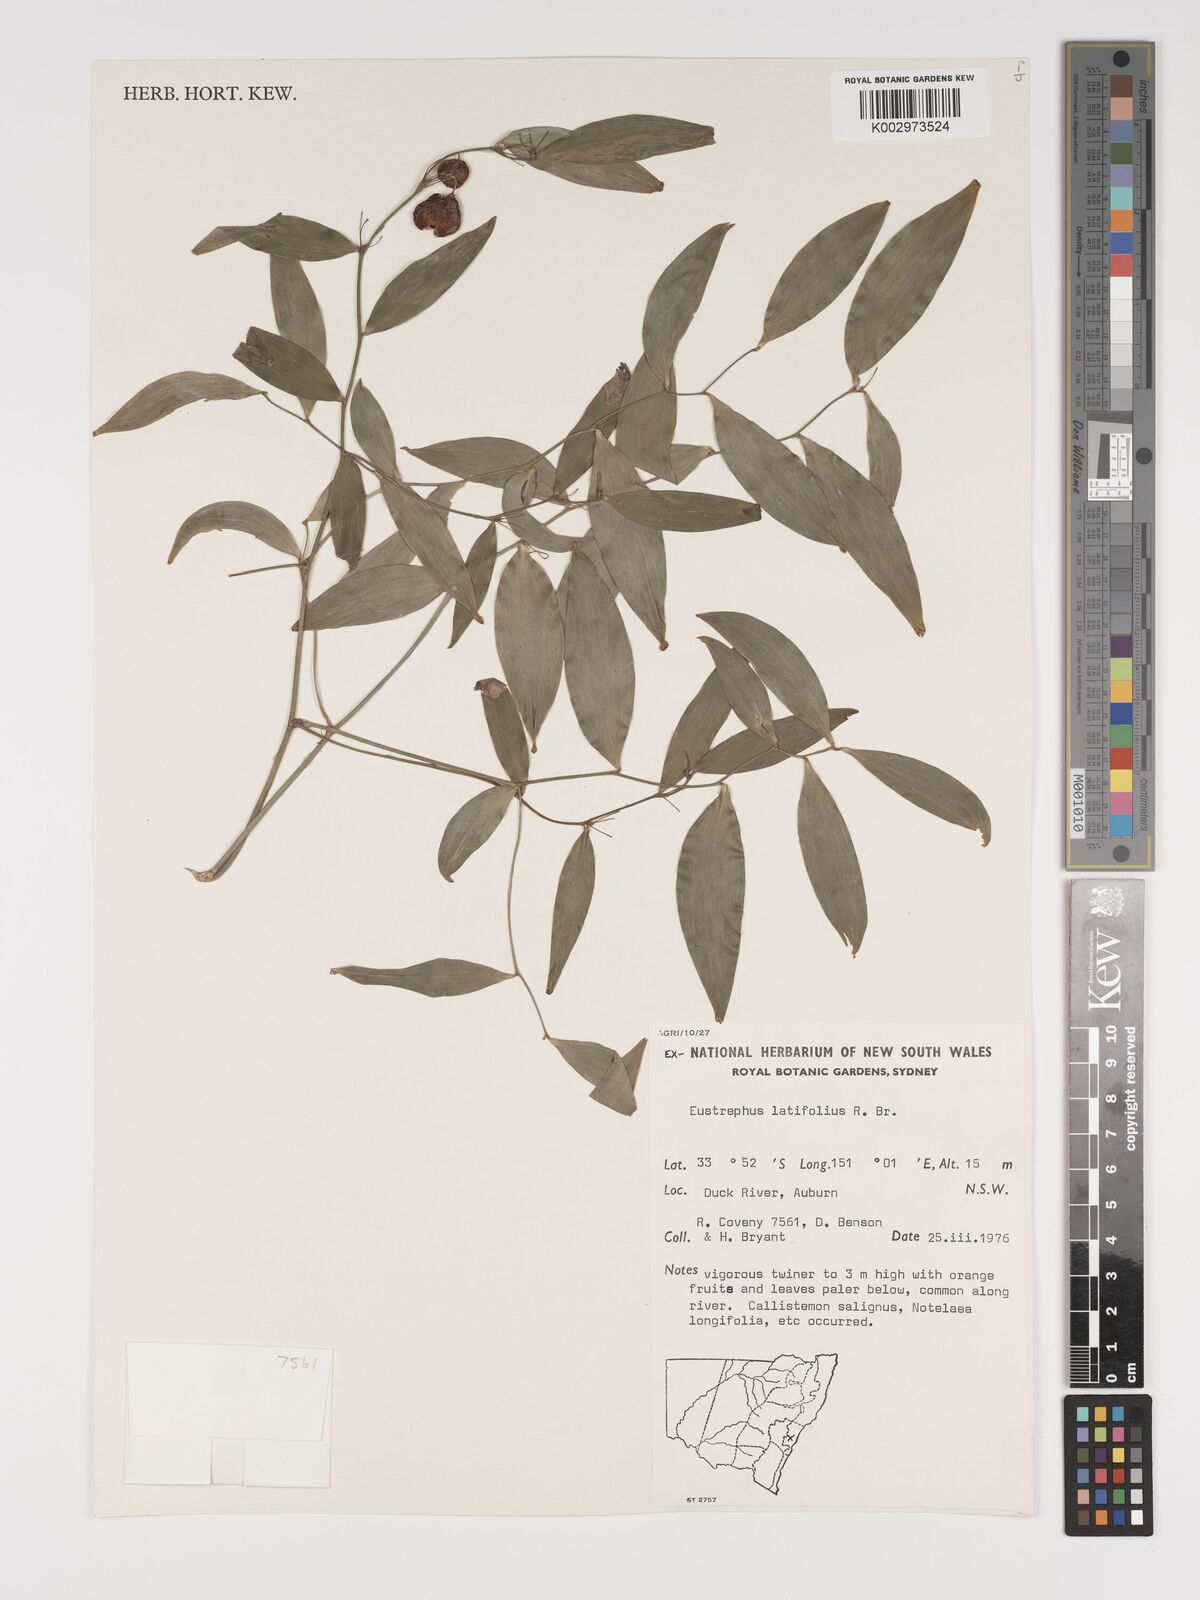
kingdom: Plantae
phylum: Tracheophyta
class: Liliopsida
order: Asparagales
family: Asparagaceae
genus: Eustrephus
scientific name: Eustrephus latifolius
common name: Orangevine
